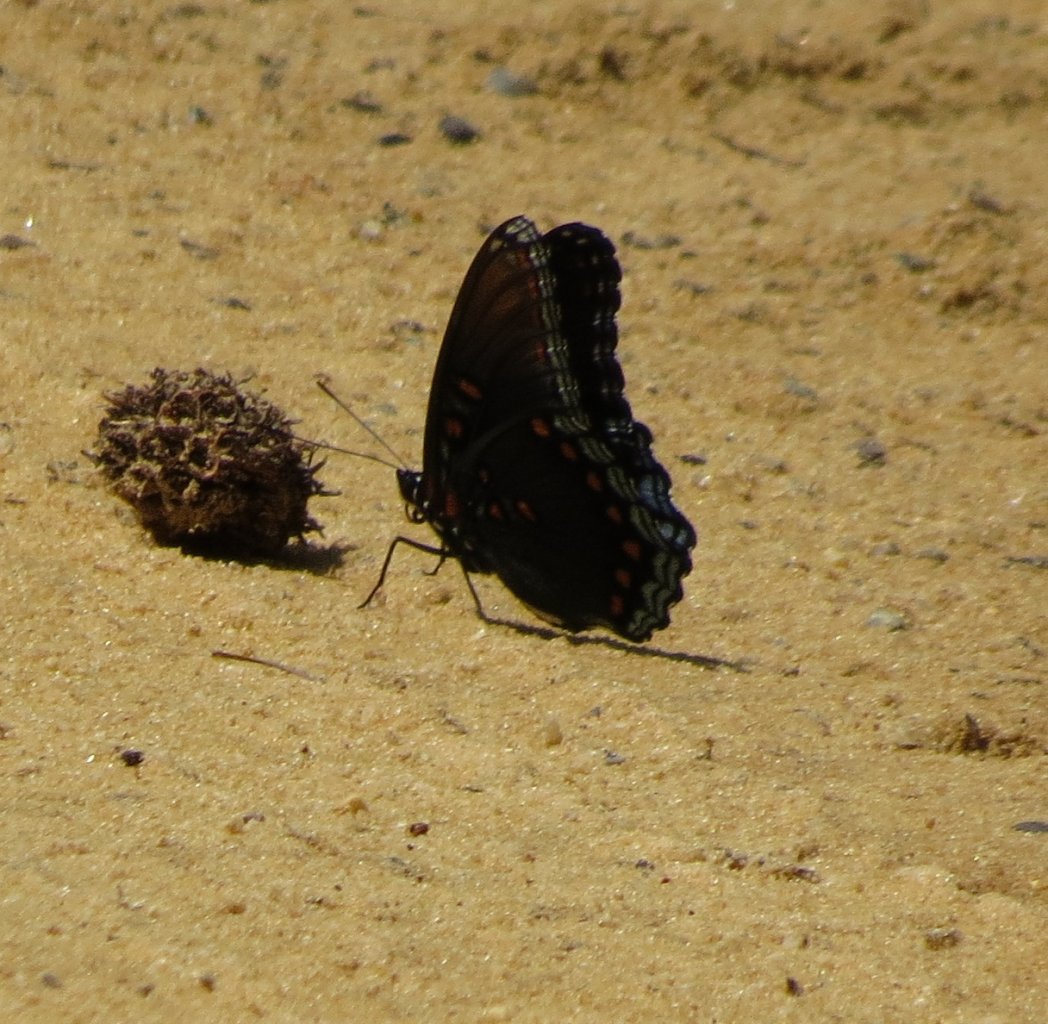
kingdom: Animalia
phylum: Arthropoda
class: Insecta
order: Lepidoptera
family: Nymphalidae
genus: Limenitis
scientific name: Limenitis astyanax
